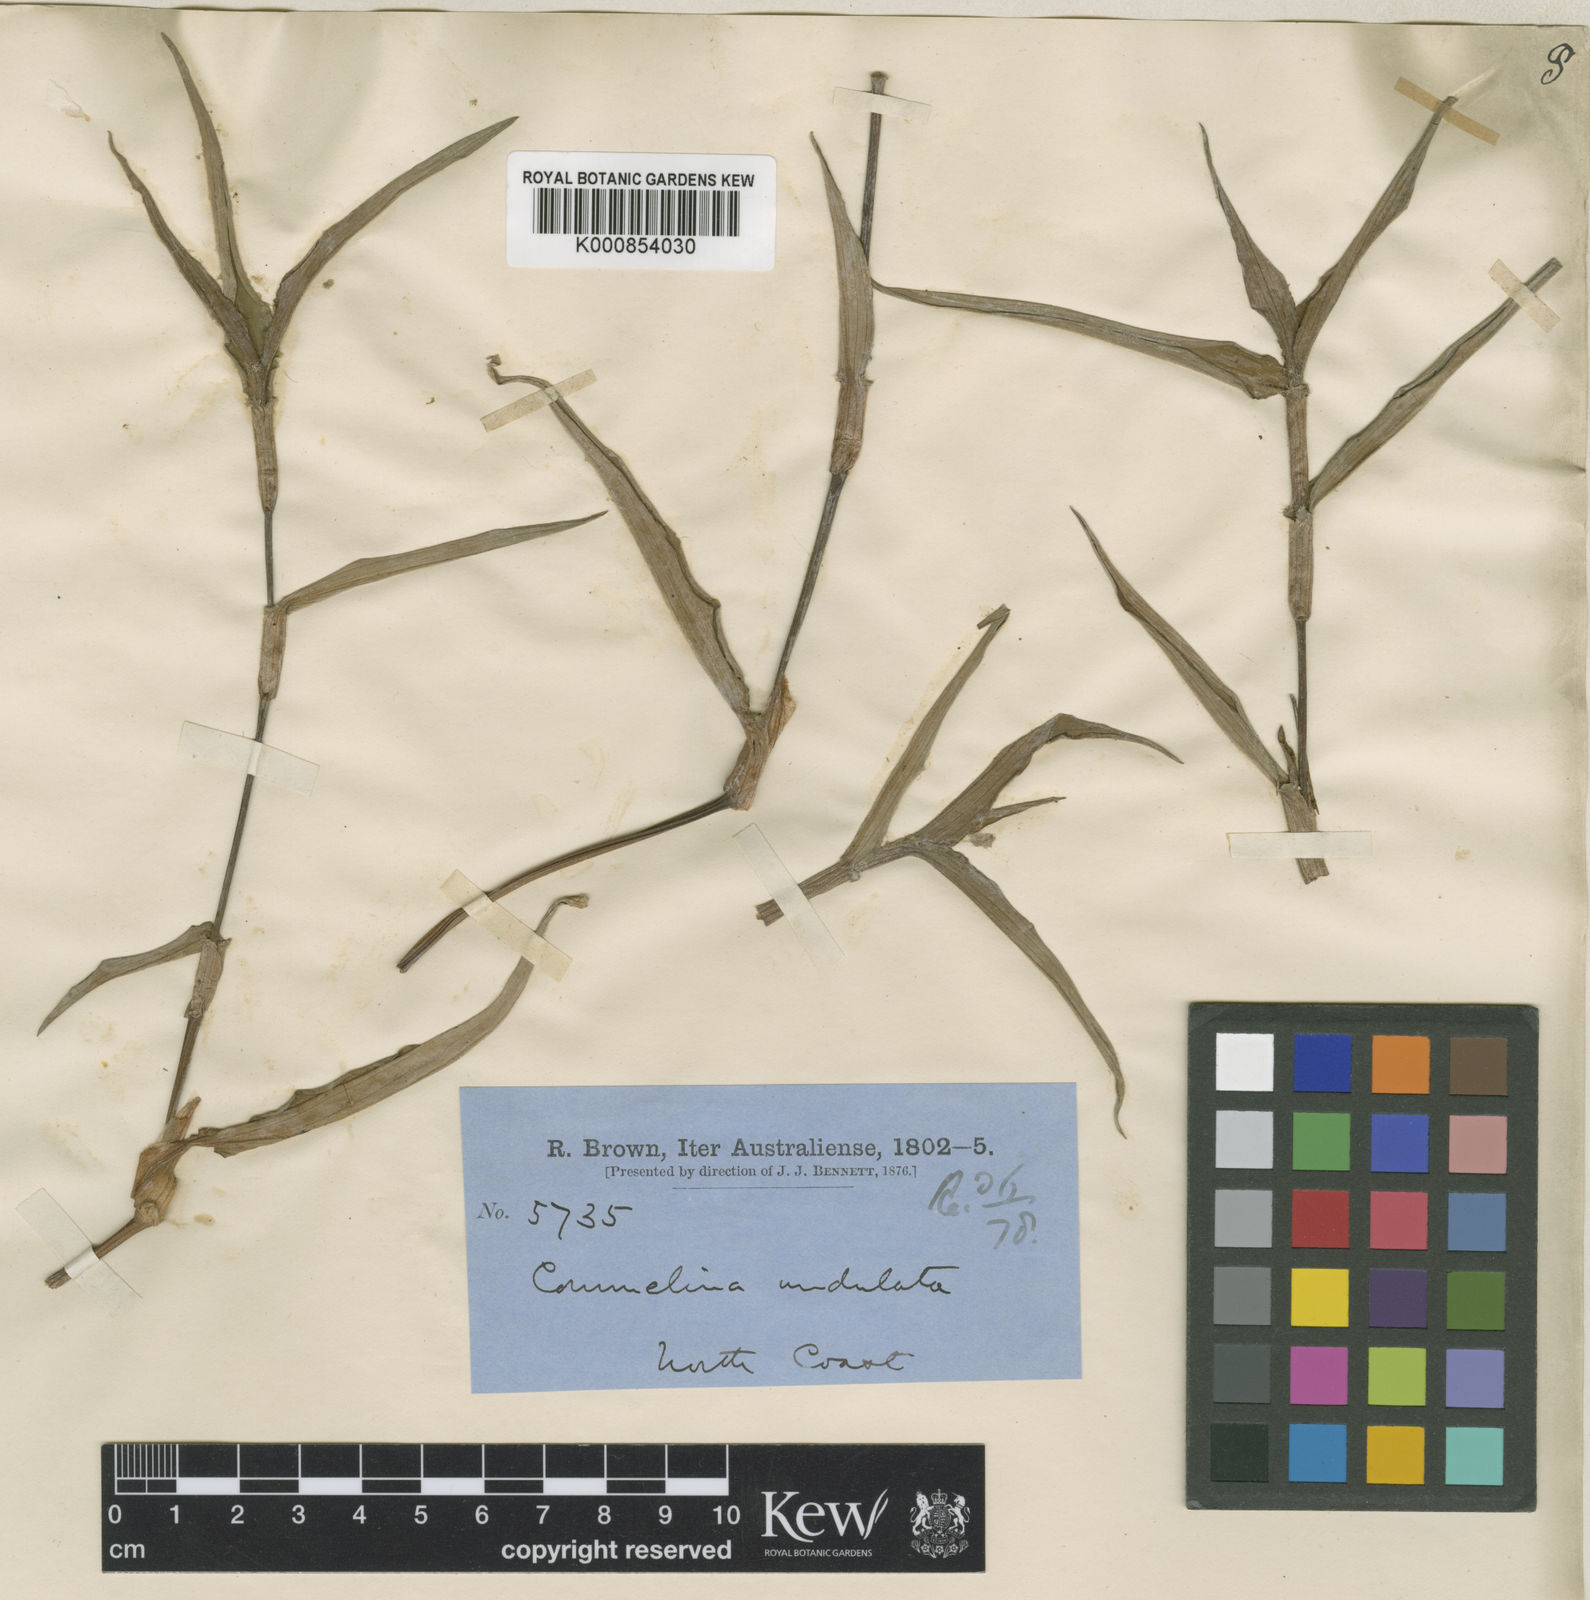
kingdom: Plantae
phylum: Tracheophyta
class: Liliopsida
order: Commelinales
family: Commelinaceae
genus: Commelina
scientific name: Commelina chamissonis
